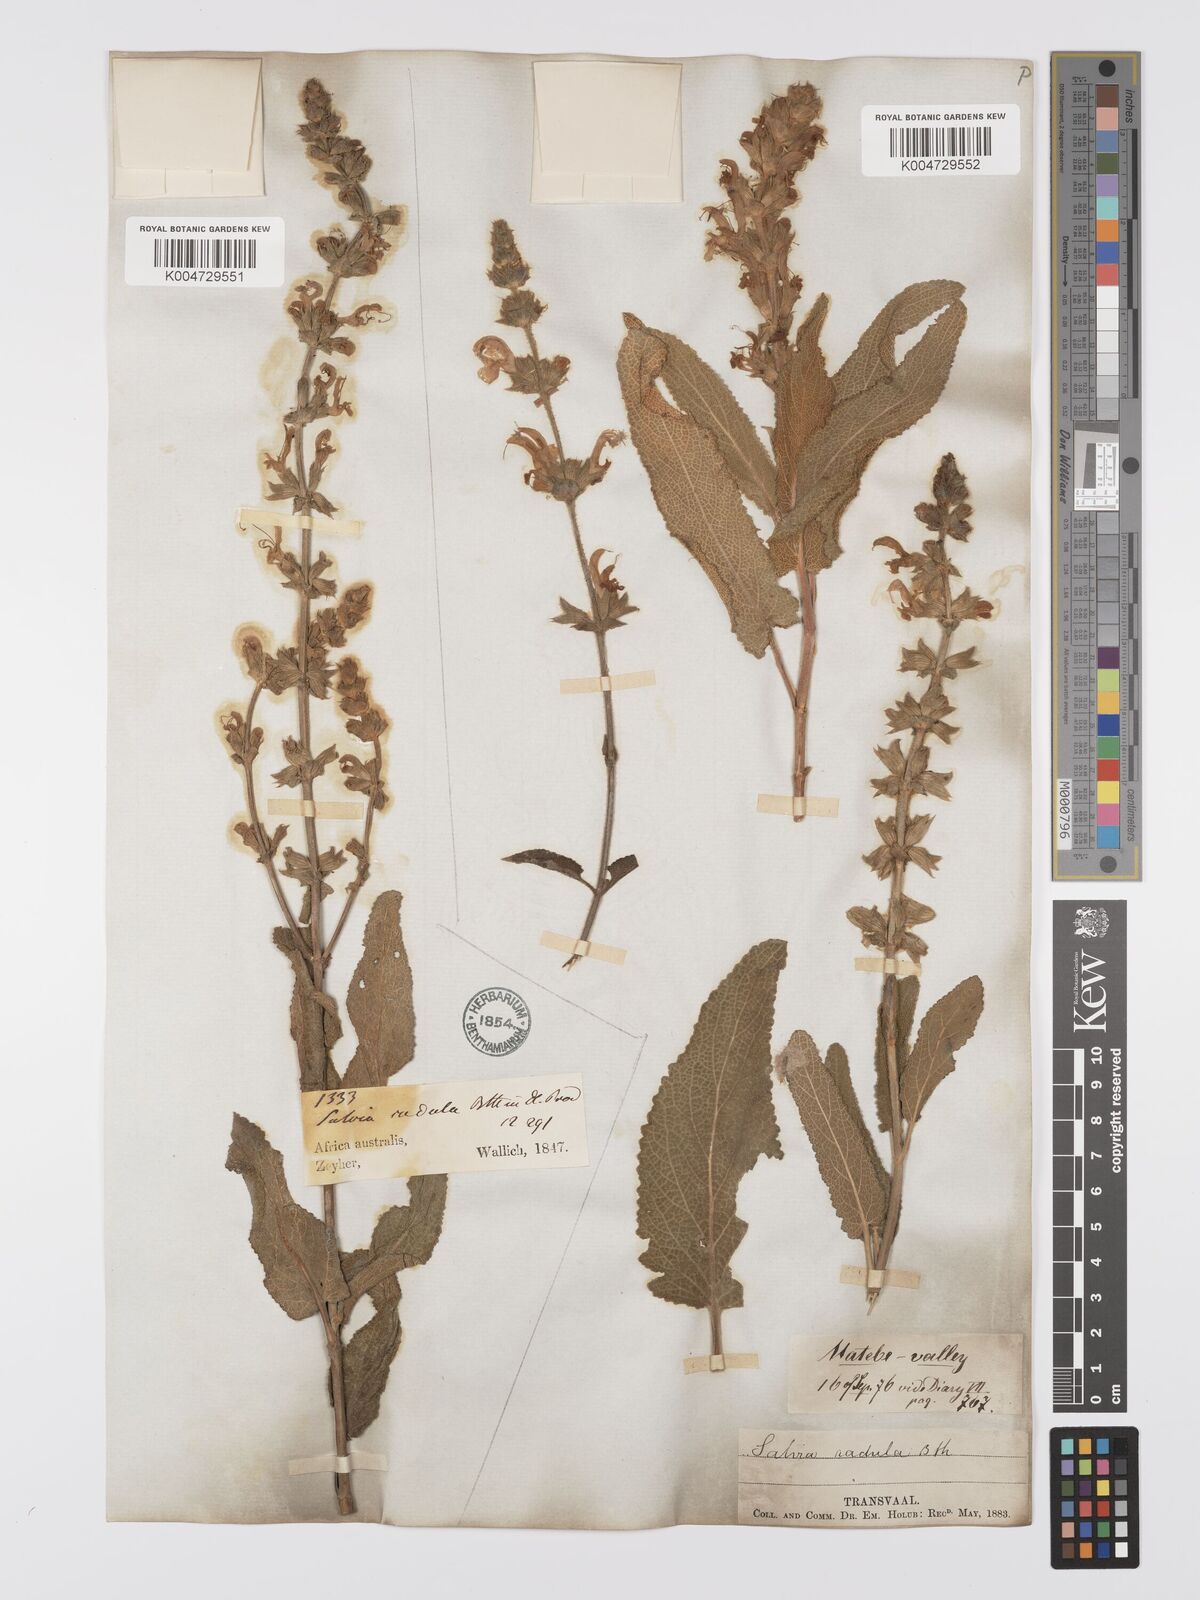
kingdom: Plantae
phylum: Tracheophyta
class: Magnoliopsida
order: Lamiales
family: Lamiaceae
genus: Salvia
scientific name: Salvia
